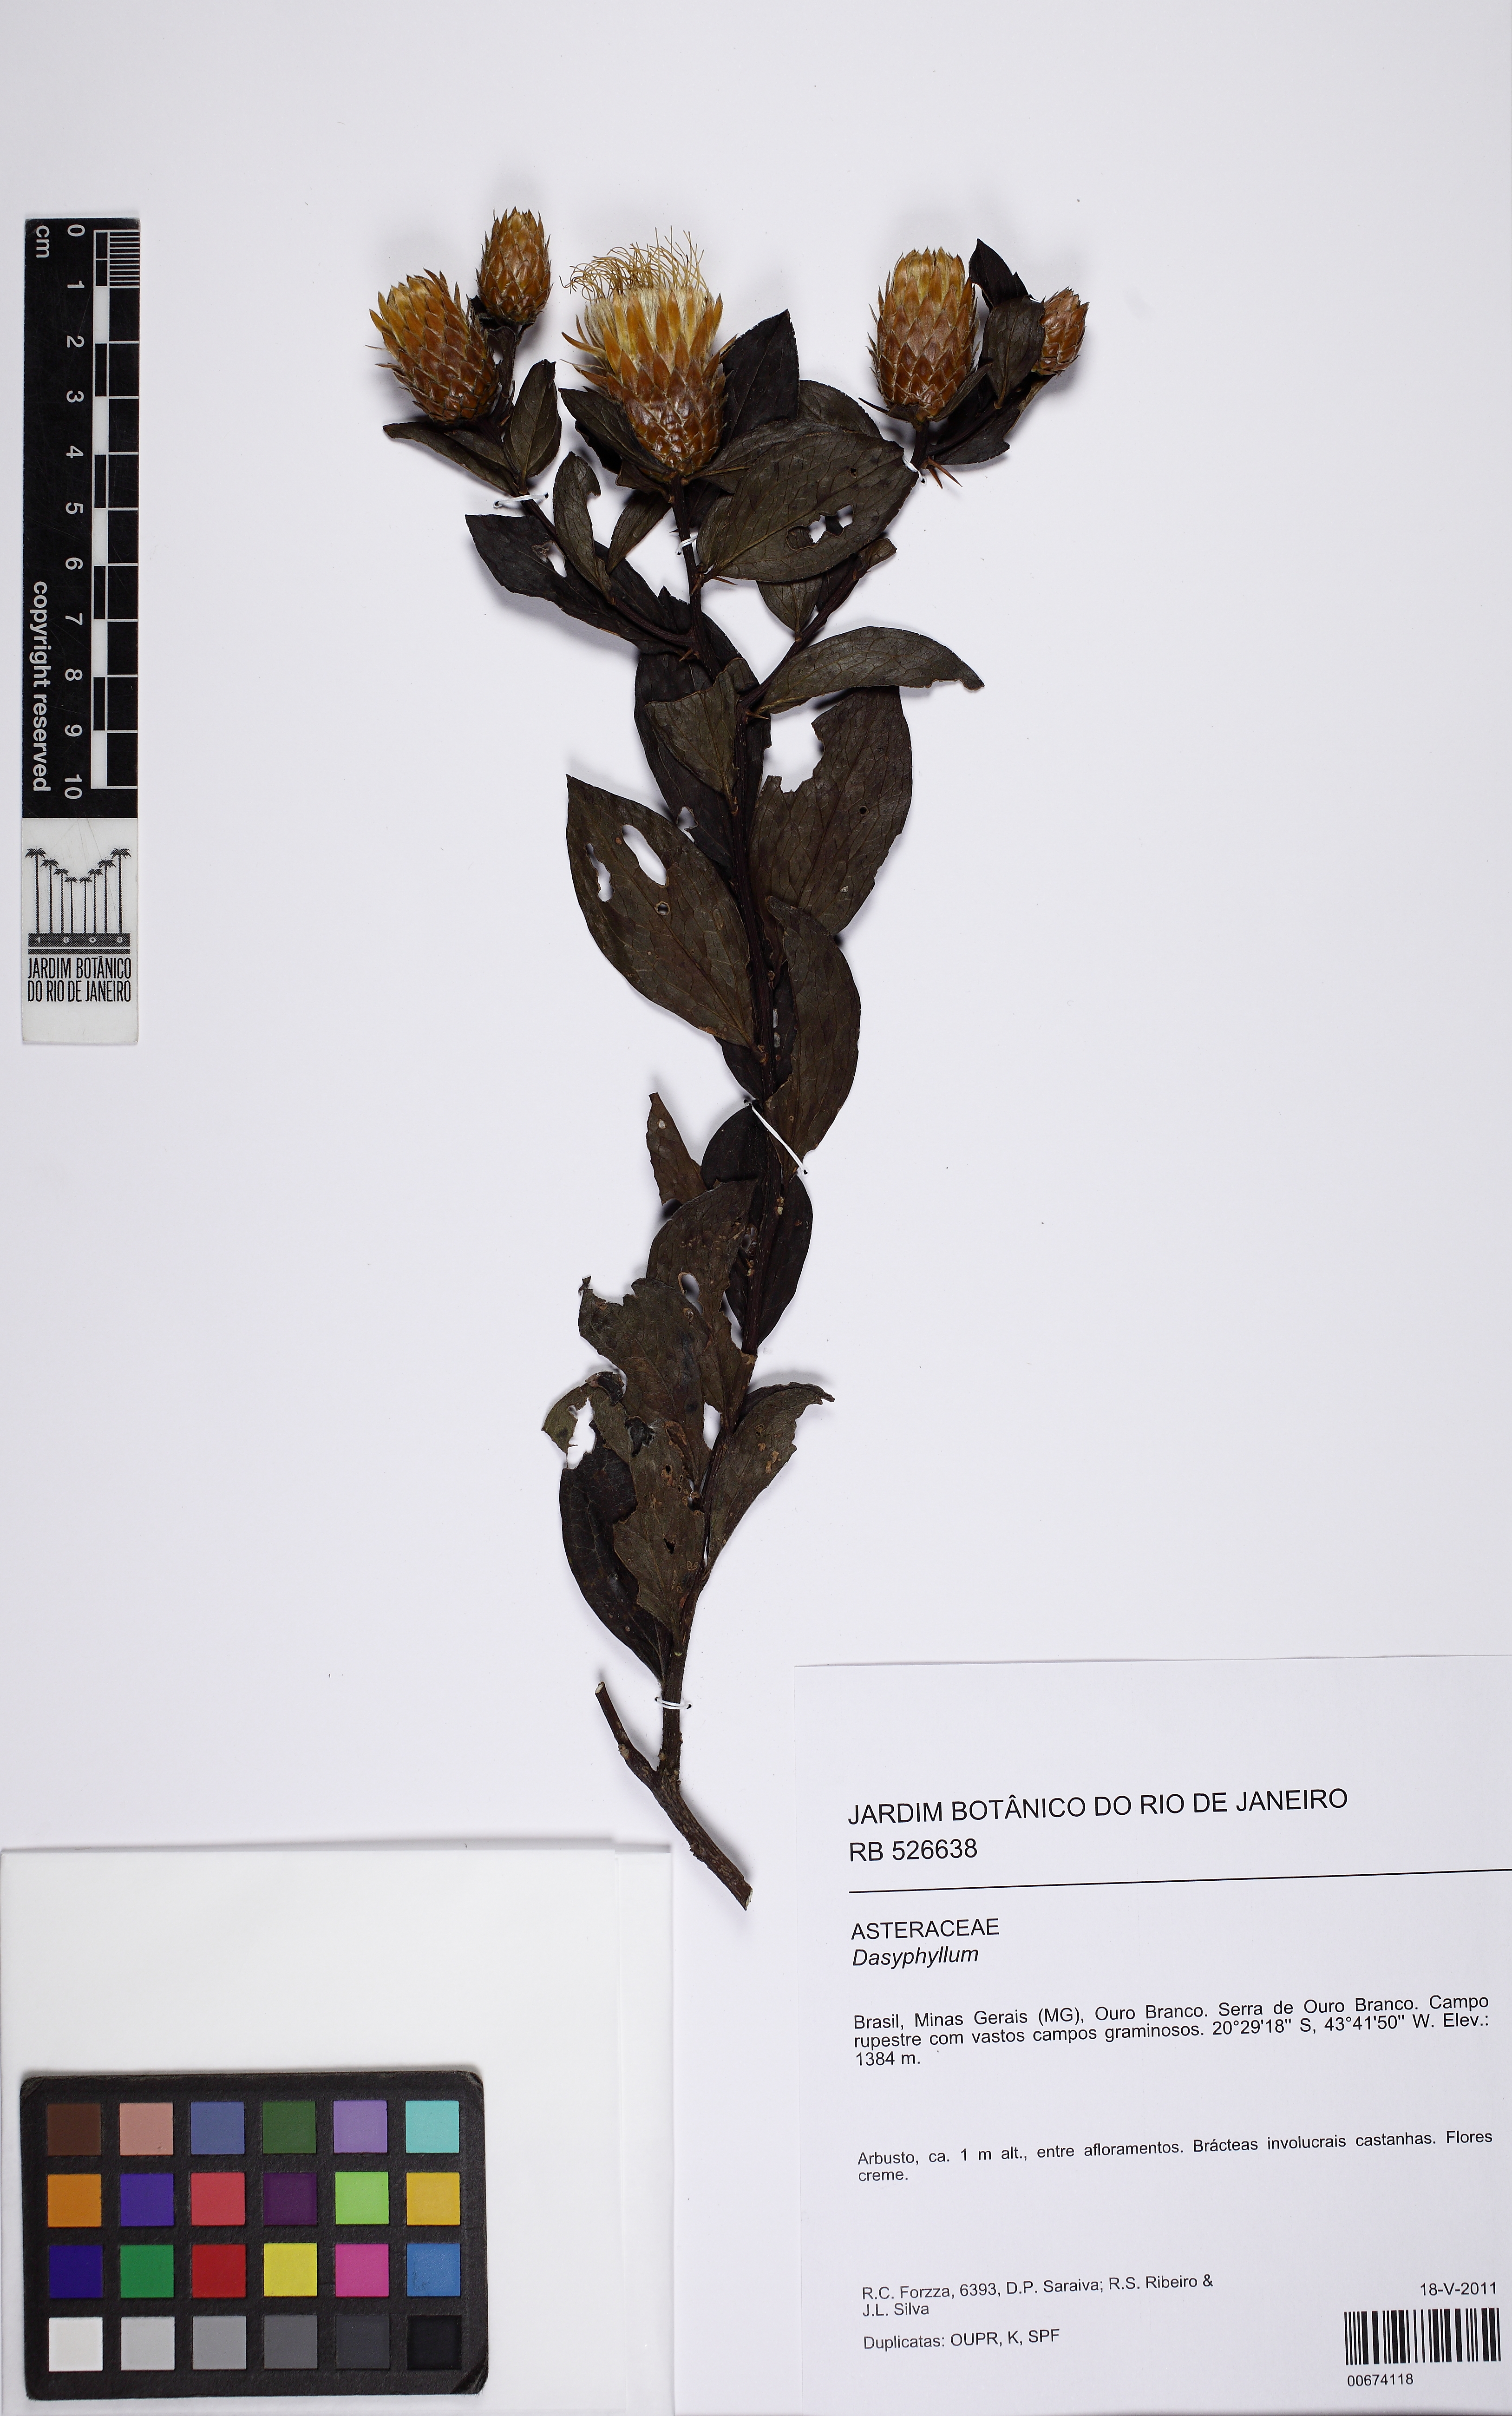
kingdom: Plantae
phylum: Tracheophyta
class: Magnoliopsida
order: Asterales
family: Asteraceae
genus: Dasyphyllum
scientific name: Dasyphyllum sprengelianum
